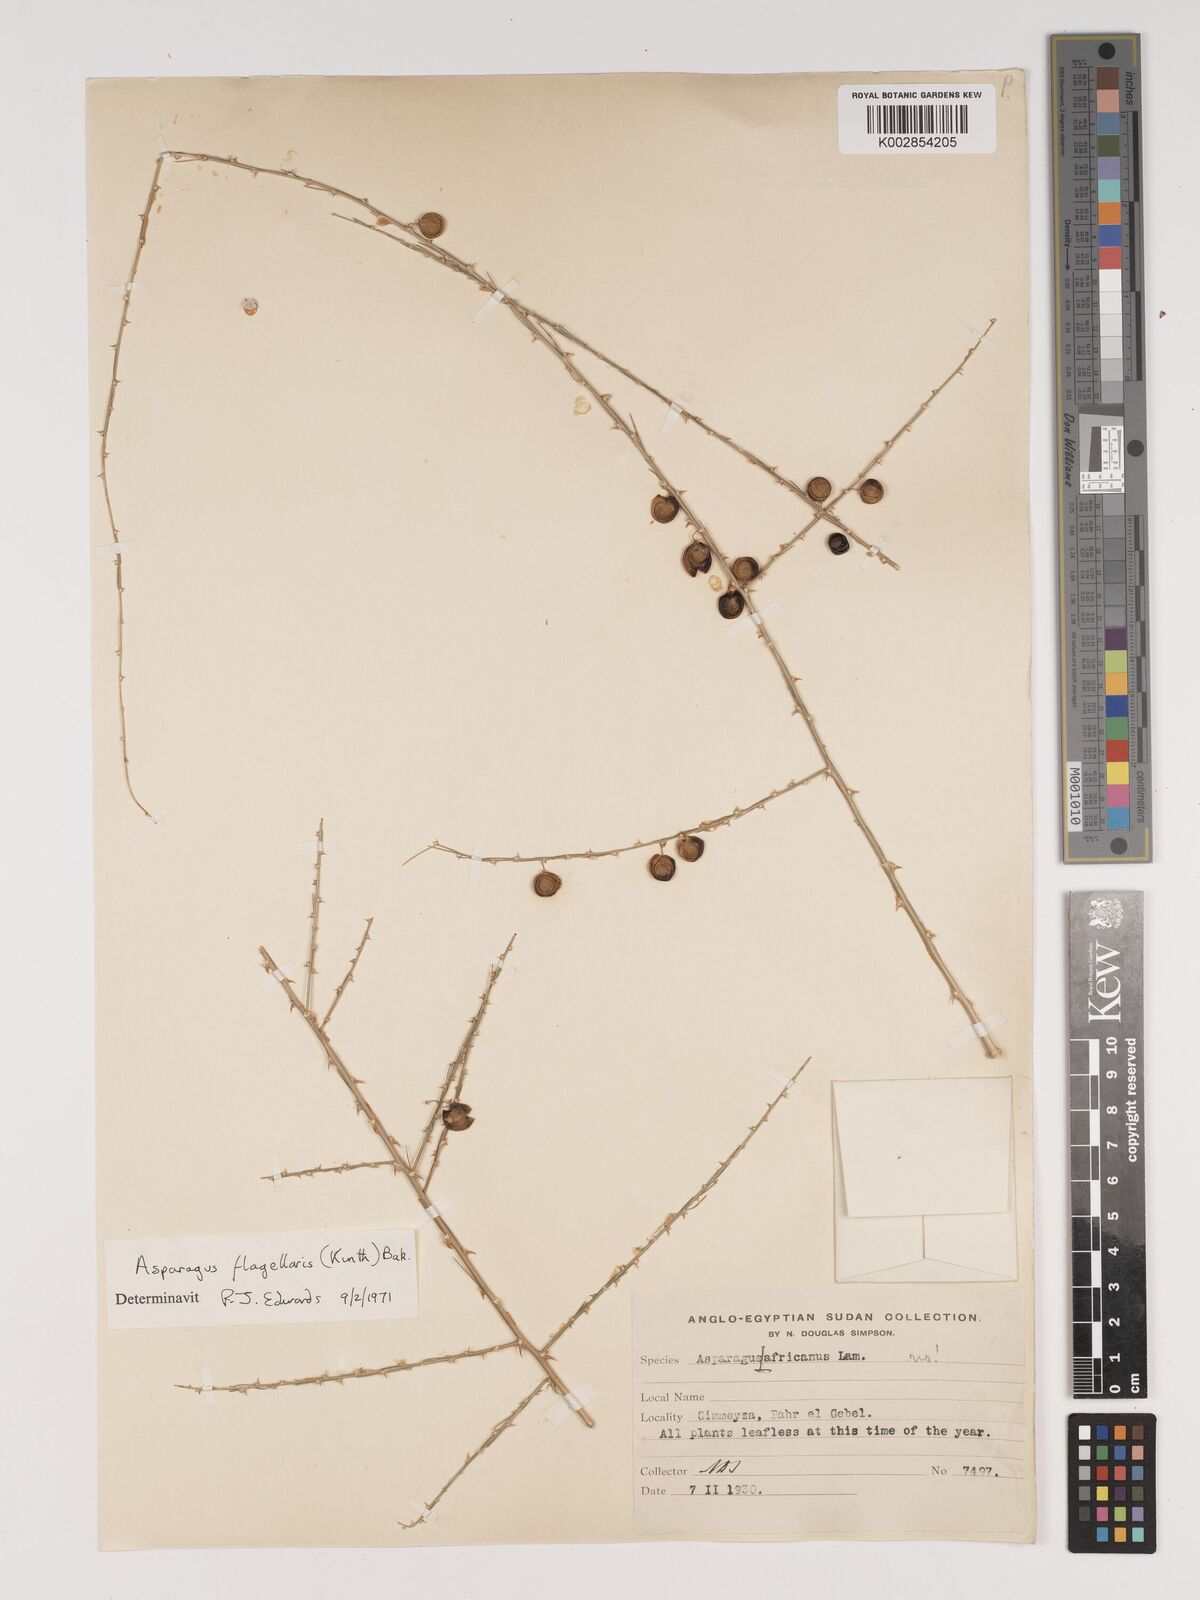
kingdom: Plantae
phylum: Tracheophyta
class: Liliopsida
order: Asparagales
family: Asparagaceae
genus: Asparagus
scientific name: Asparagus flagellaris
